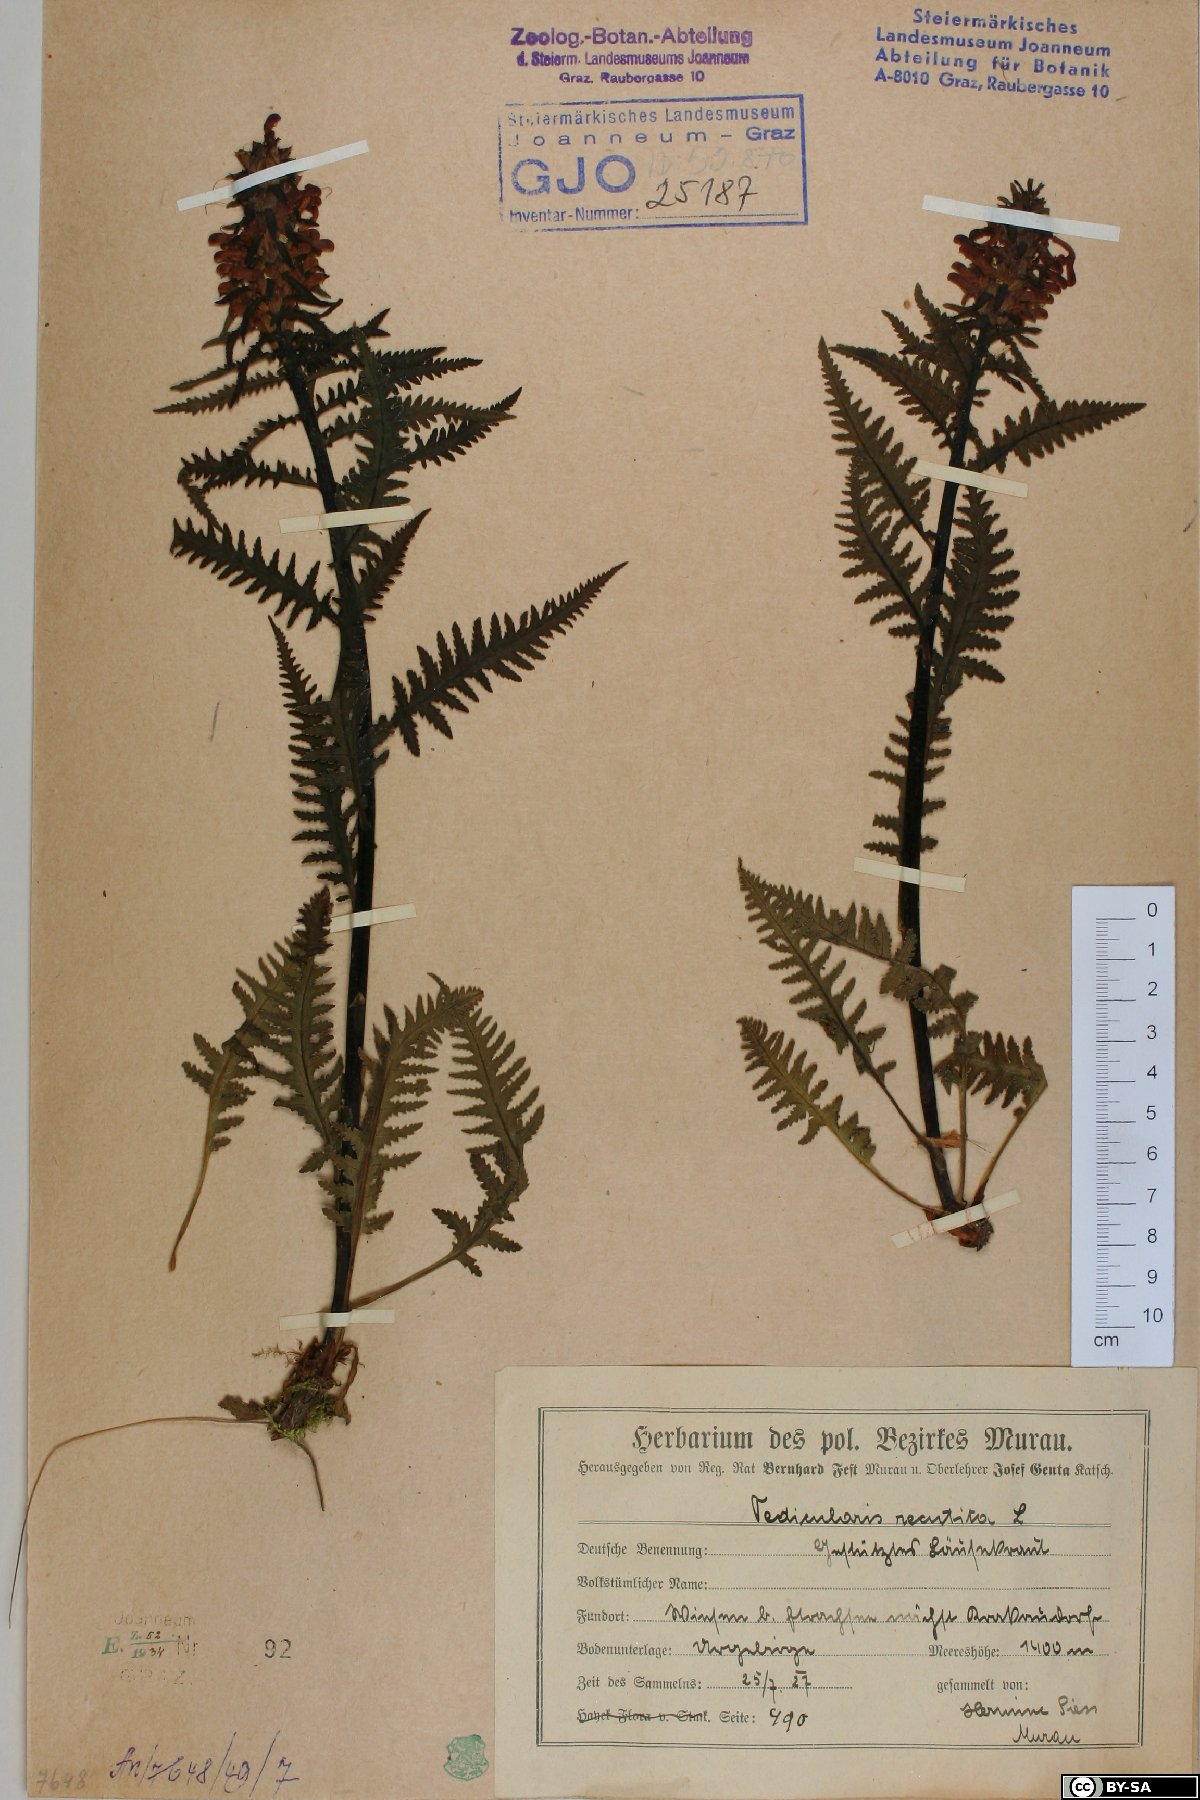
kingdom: Plantae
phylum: Tracheophyta
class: Magnoliopsida
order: Lamiales
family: Orobanchaceae
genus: Pedicularis
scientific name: Pedicularis recutita
